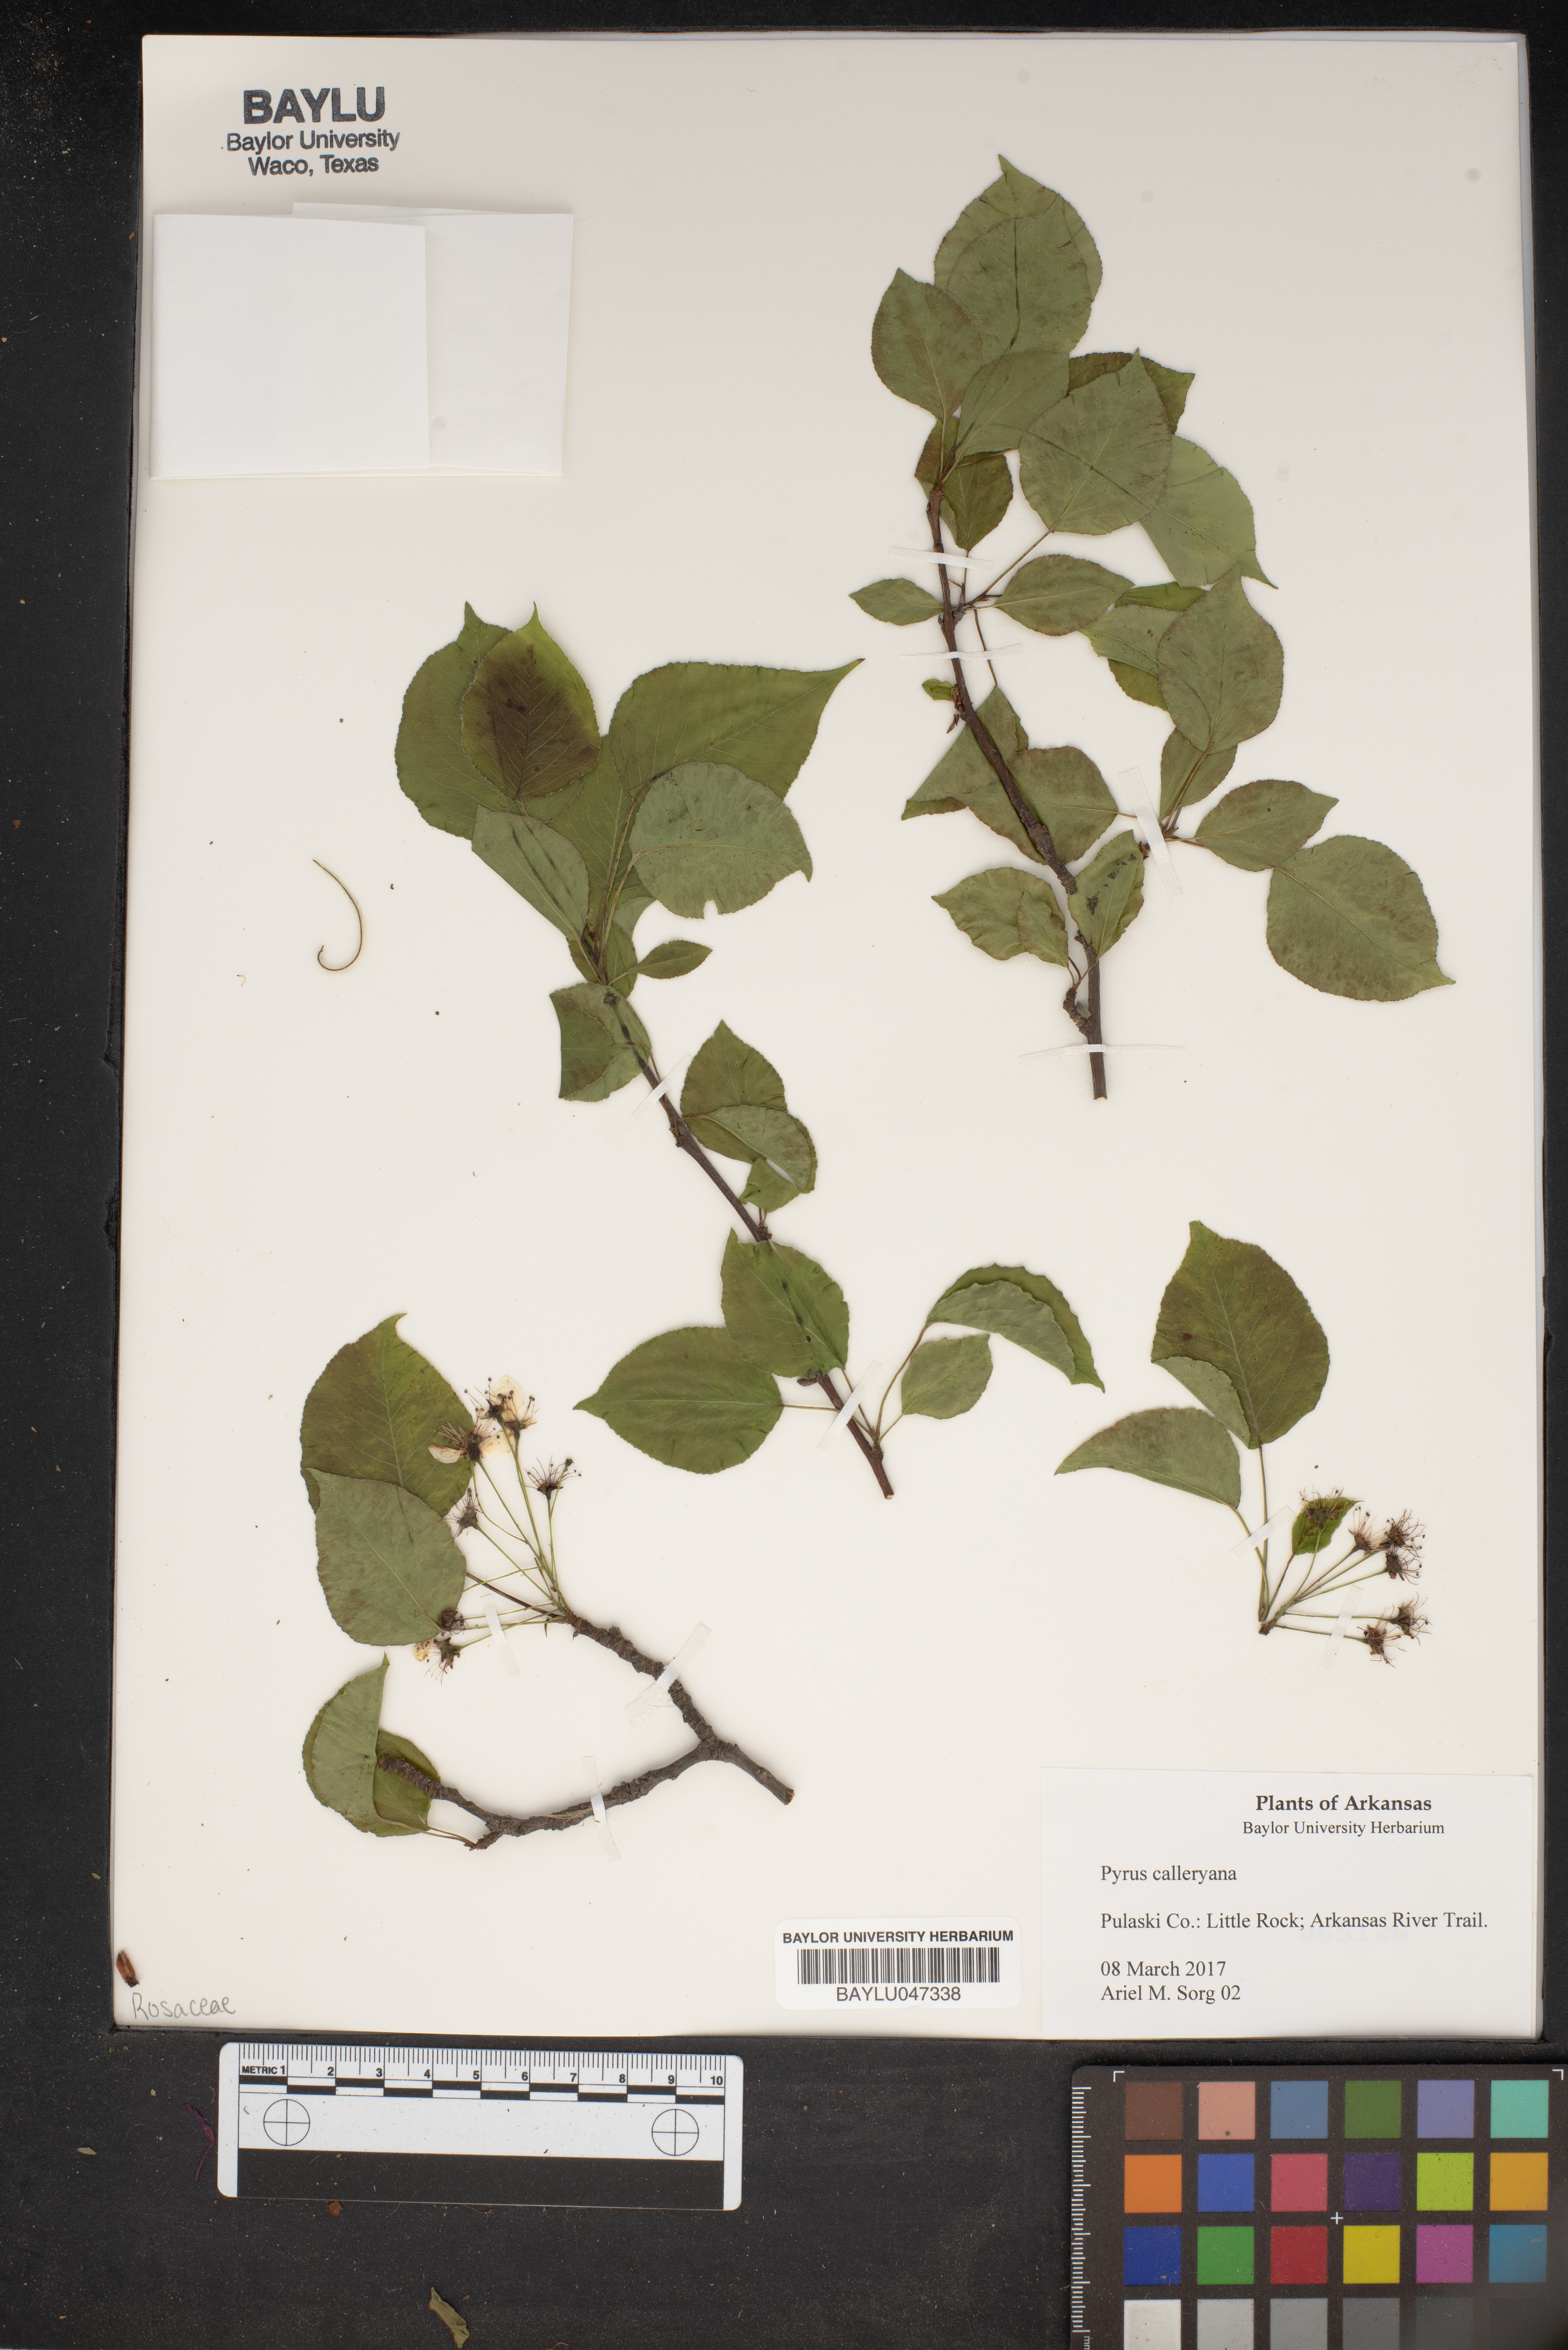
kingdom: Plantae
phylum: Tracheophyta
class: Magnoliopsida
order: Rosales
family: Rosaceae
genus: Pyrus
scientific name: Pyrus calleryana
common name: Callery pear
